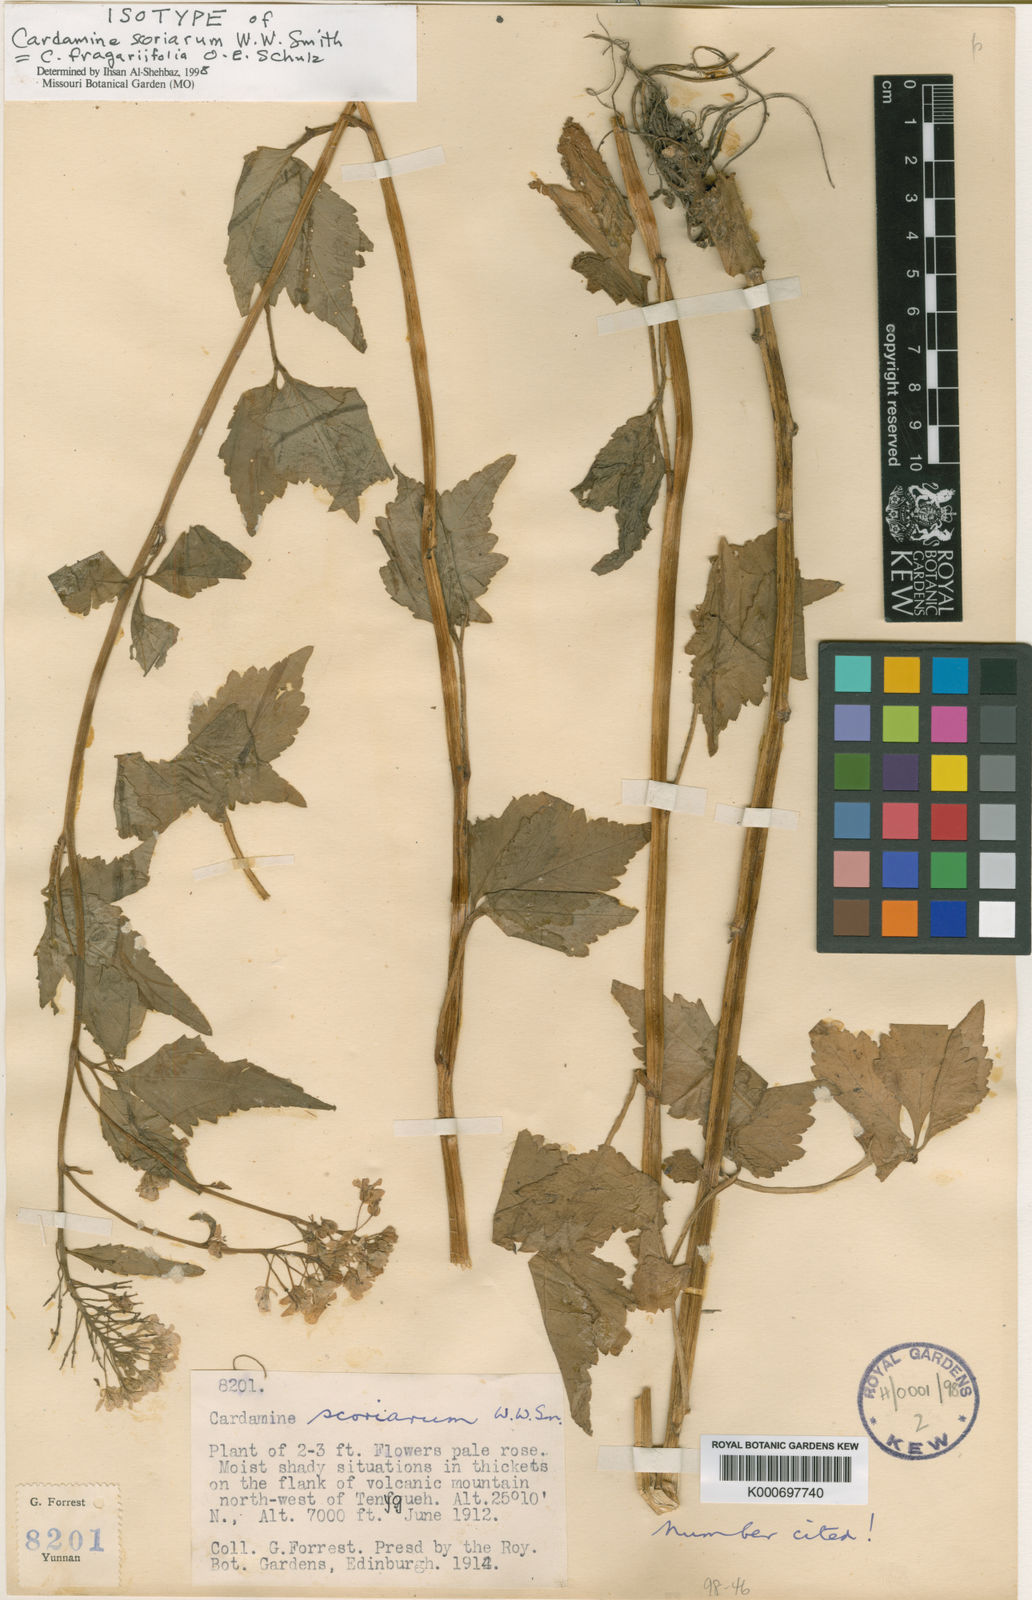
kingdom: Plantae
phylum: Tracheophyta
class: Magnoliopsida
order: Brassicales
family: Brassicaceae
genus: Cardamine
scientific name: Cardamine cheotaiyienii
